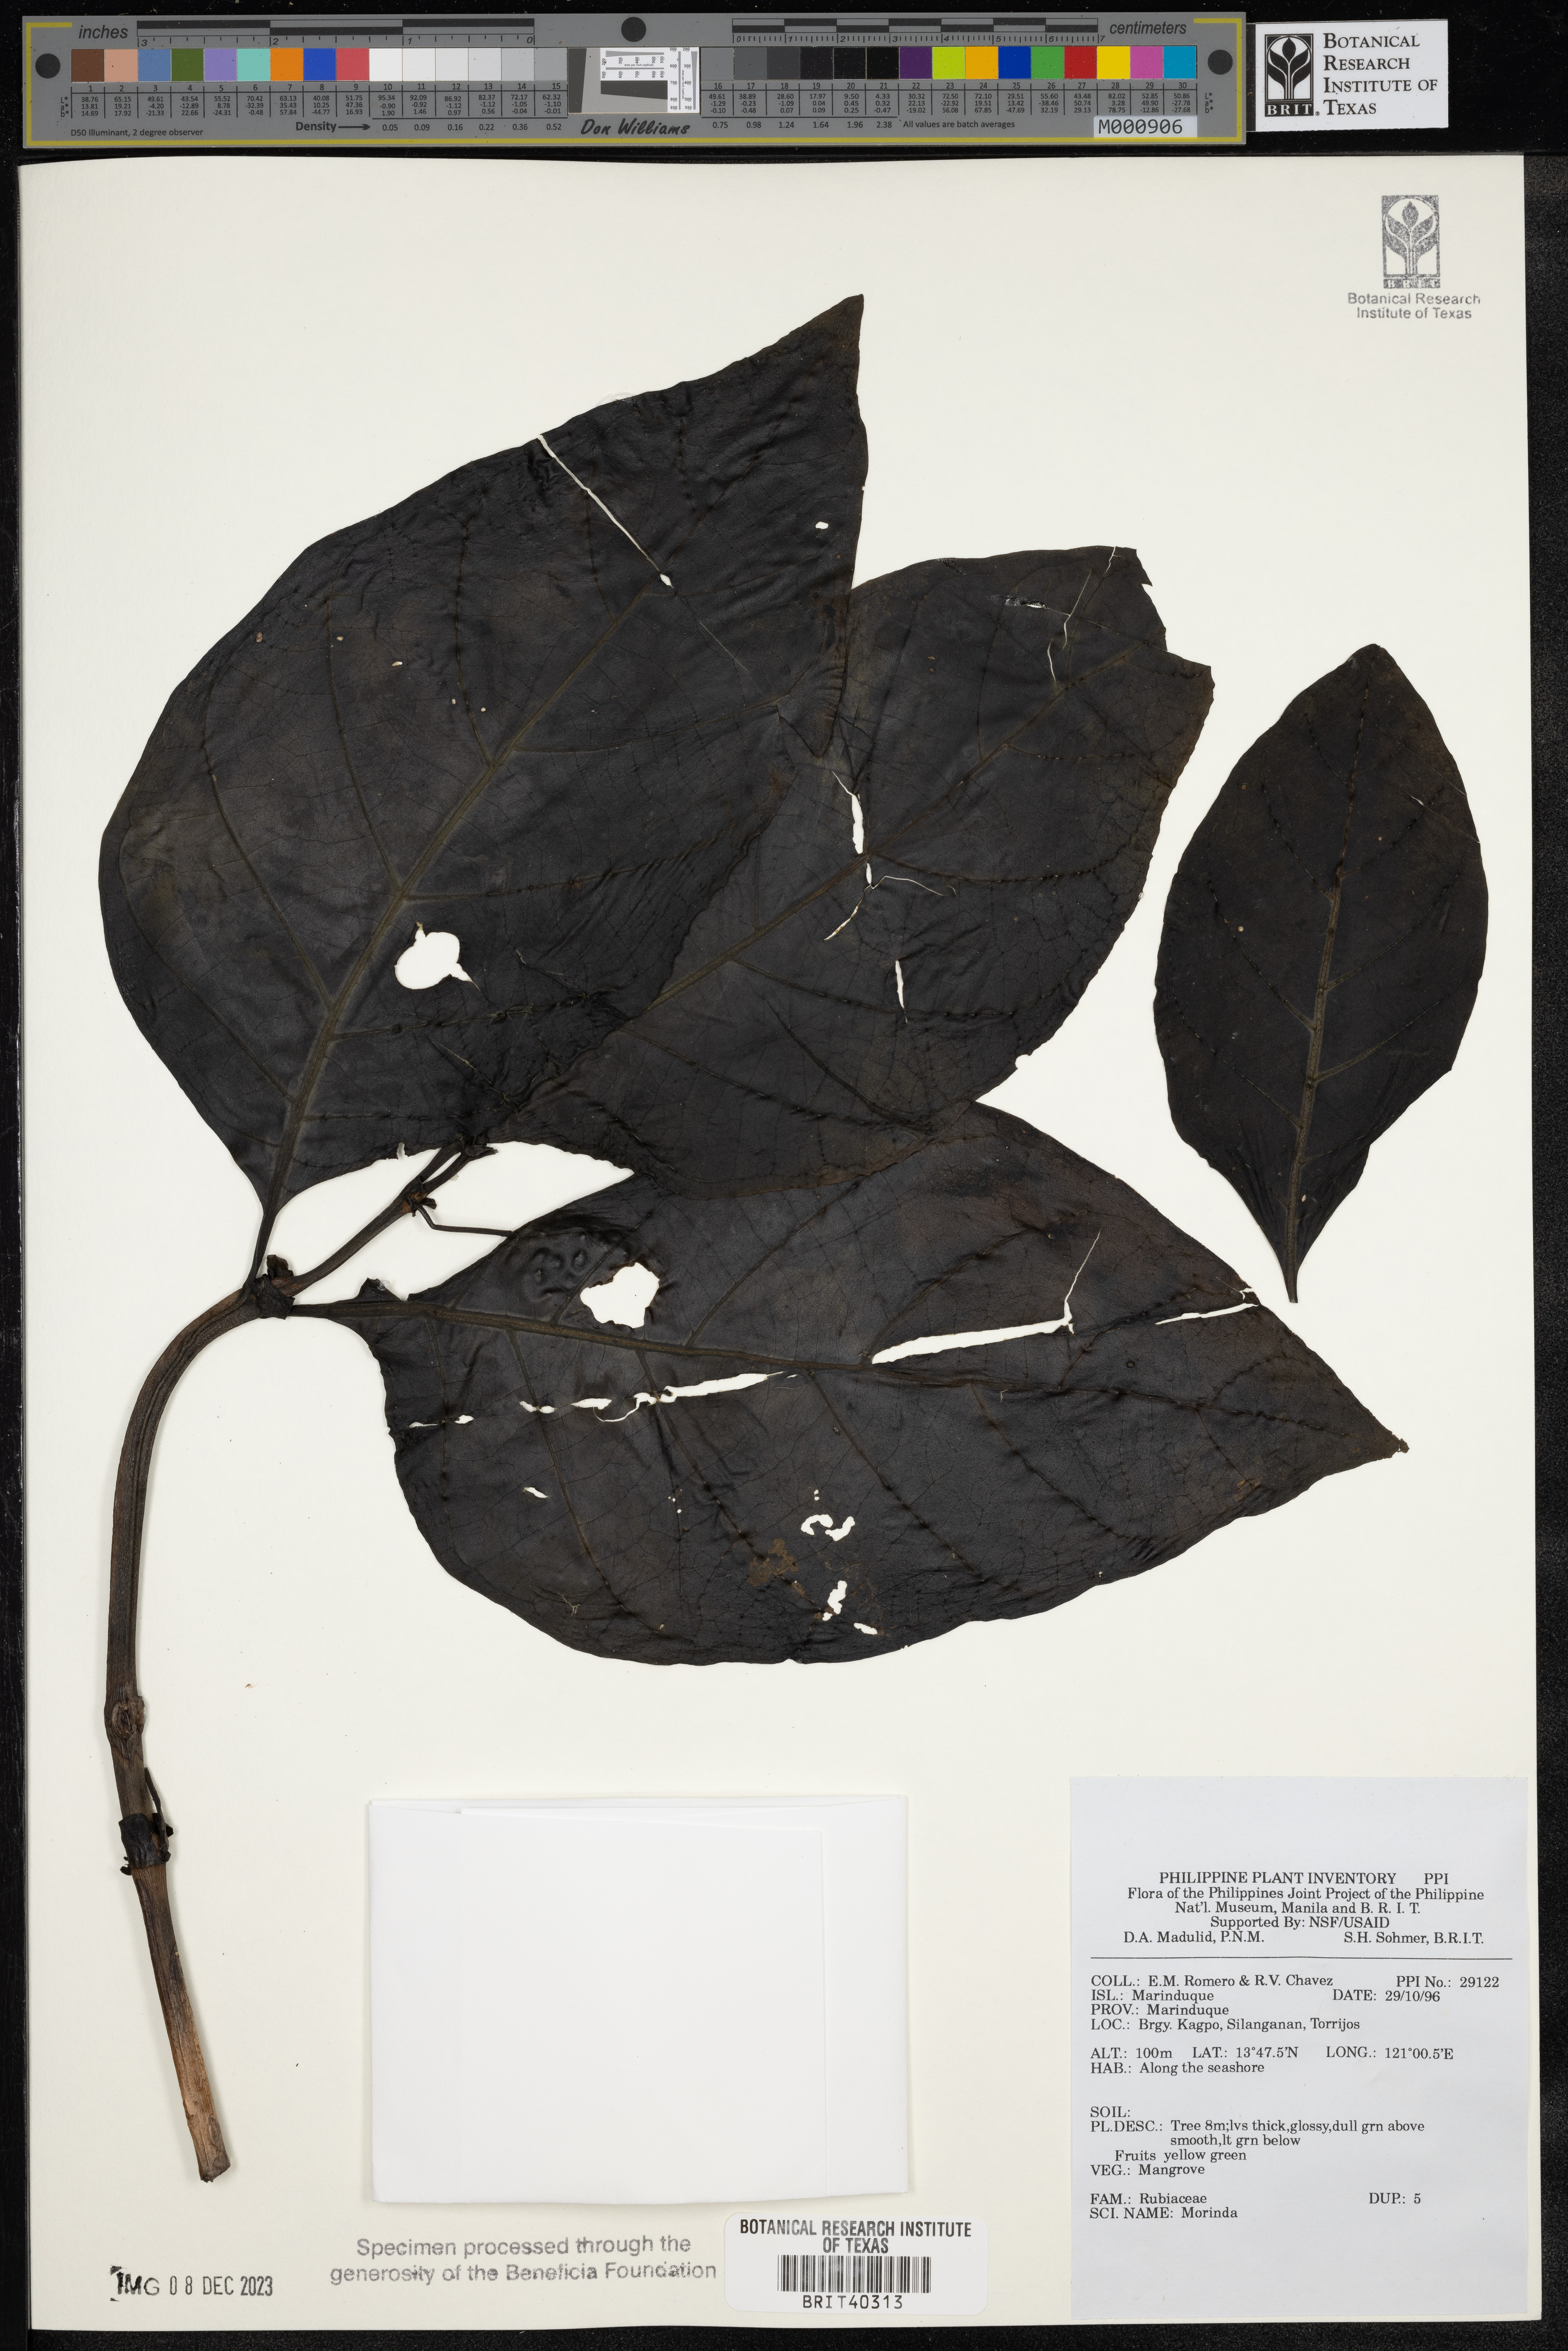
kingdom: Plantae
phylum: Tracheophyta
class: Magnoliopsida
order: Gentianales
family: Rubiaceae
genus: Morinda
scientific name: Morinda
